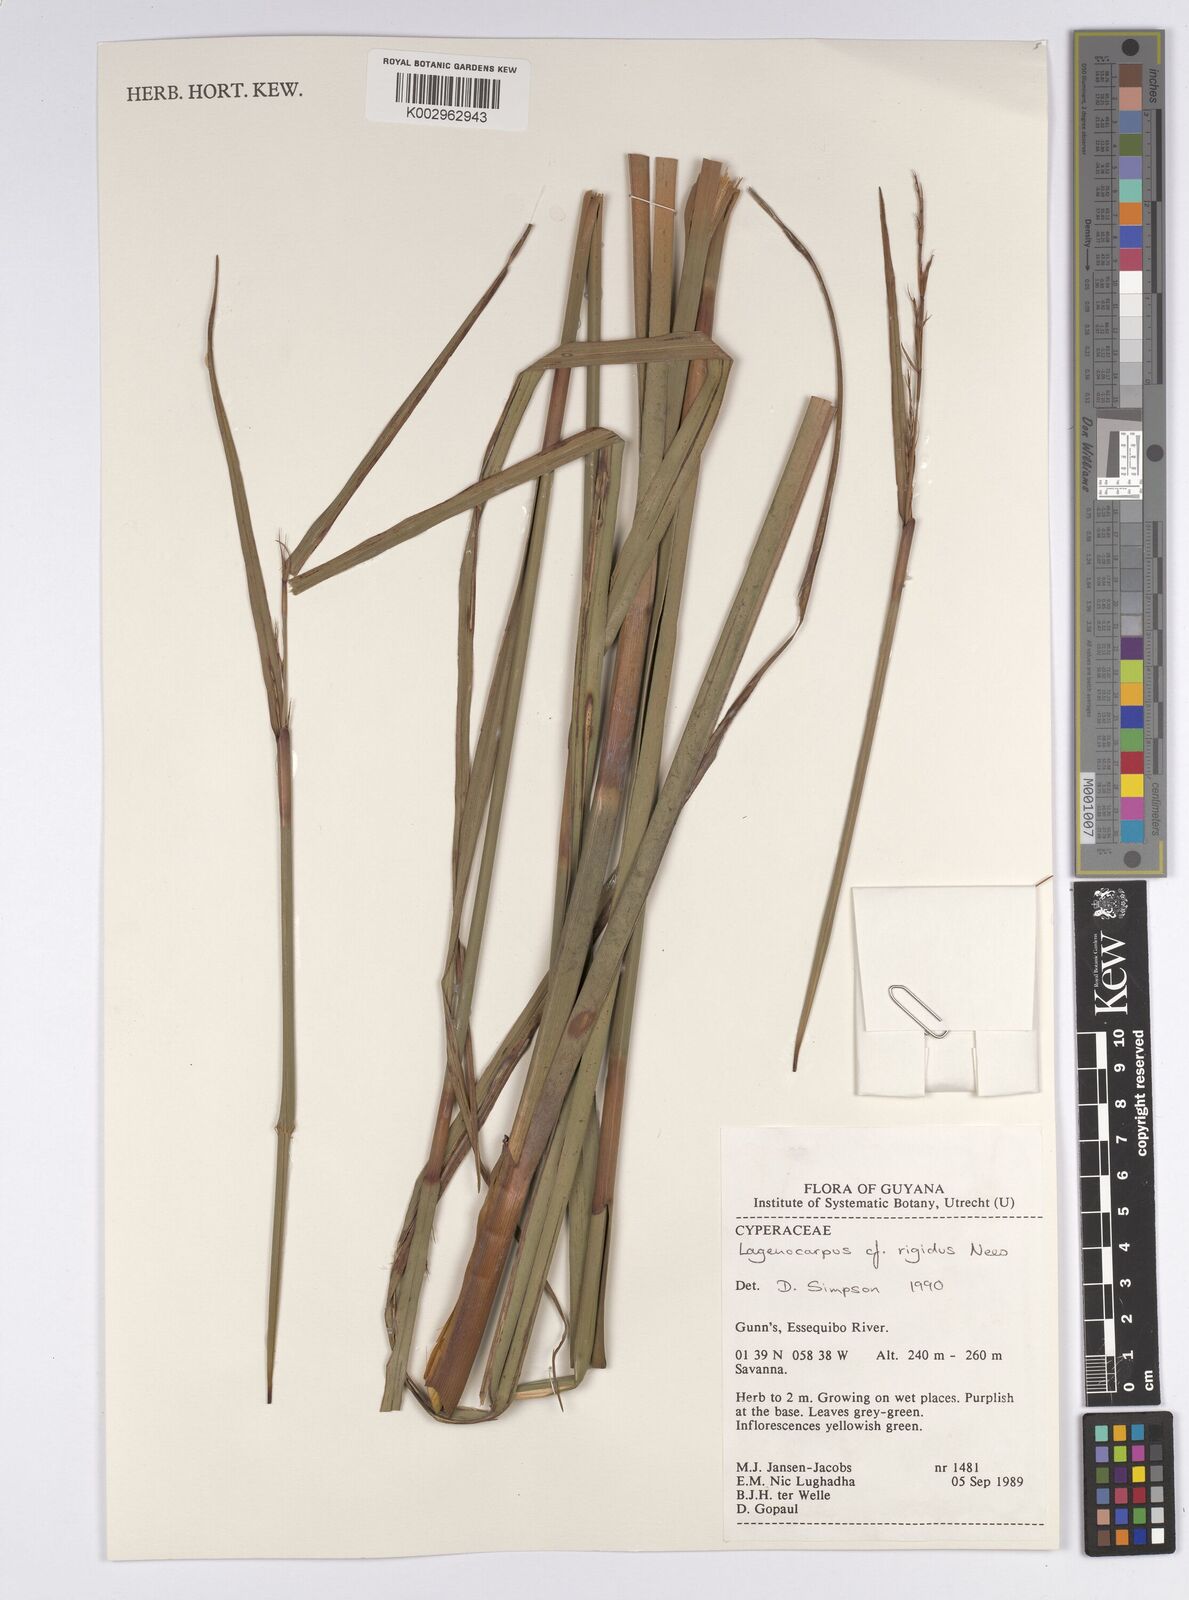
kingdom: Plantae
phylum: Tracheophyta
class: Liliopsida
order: Poales
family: Cyperaceae
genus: Lagenocarpus
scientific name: Lagenocarpus rigidus
